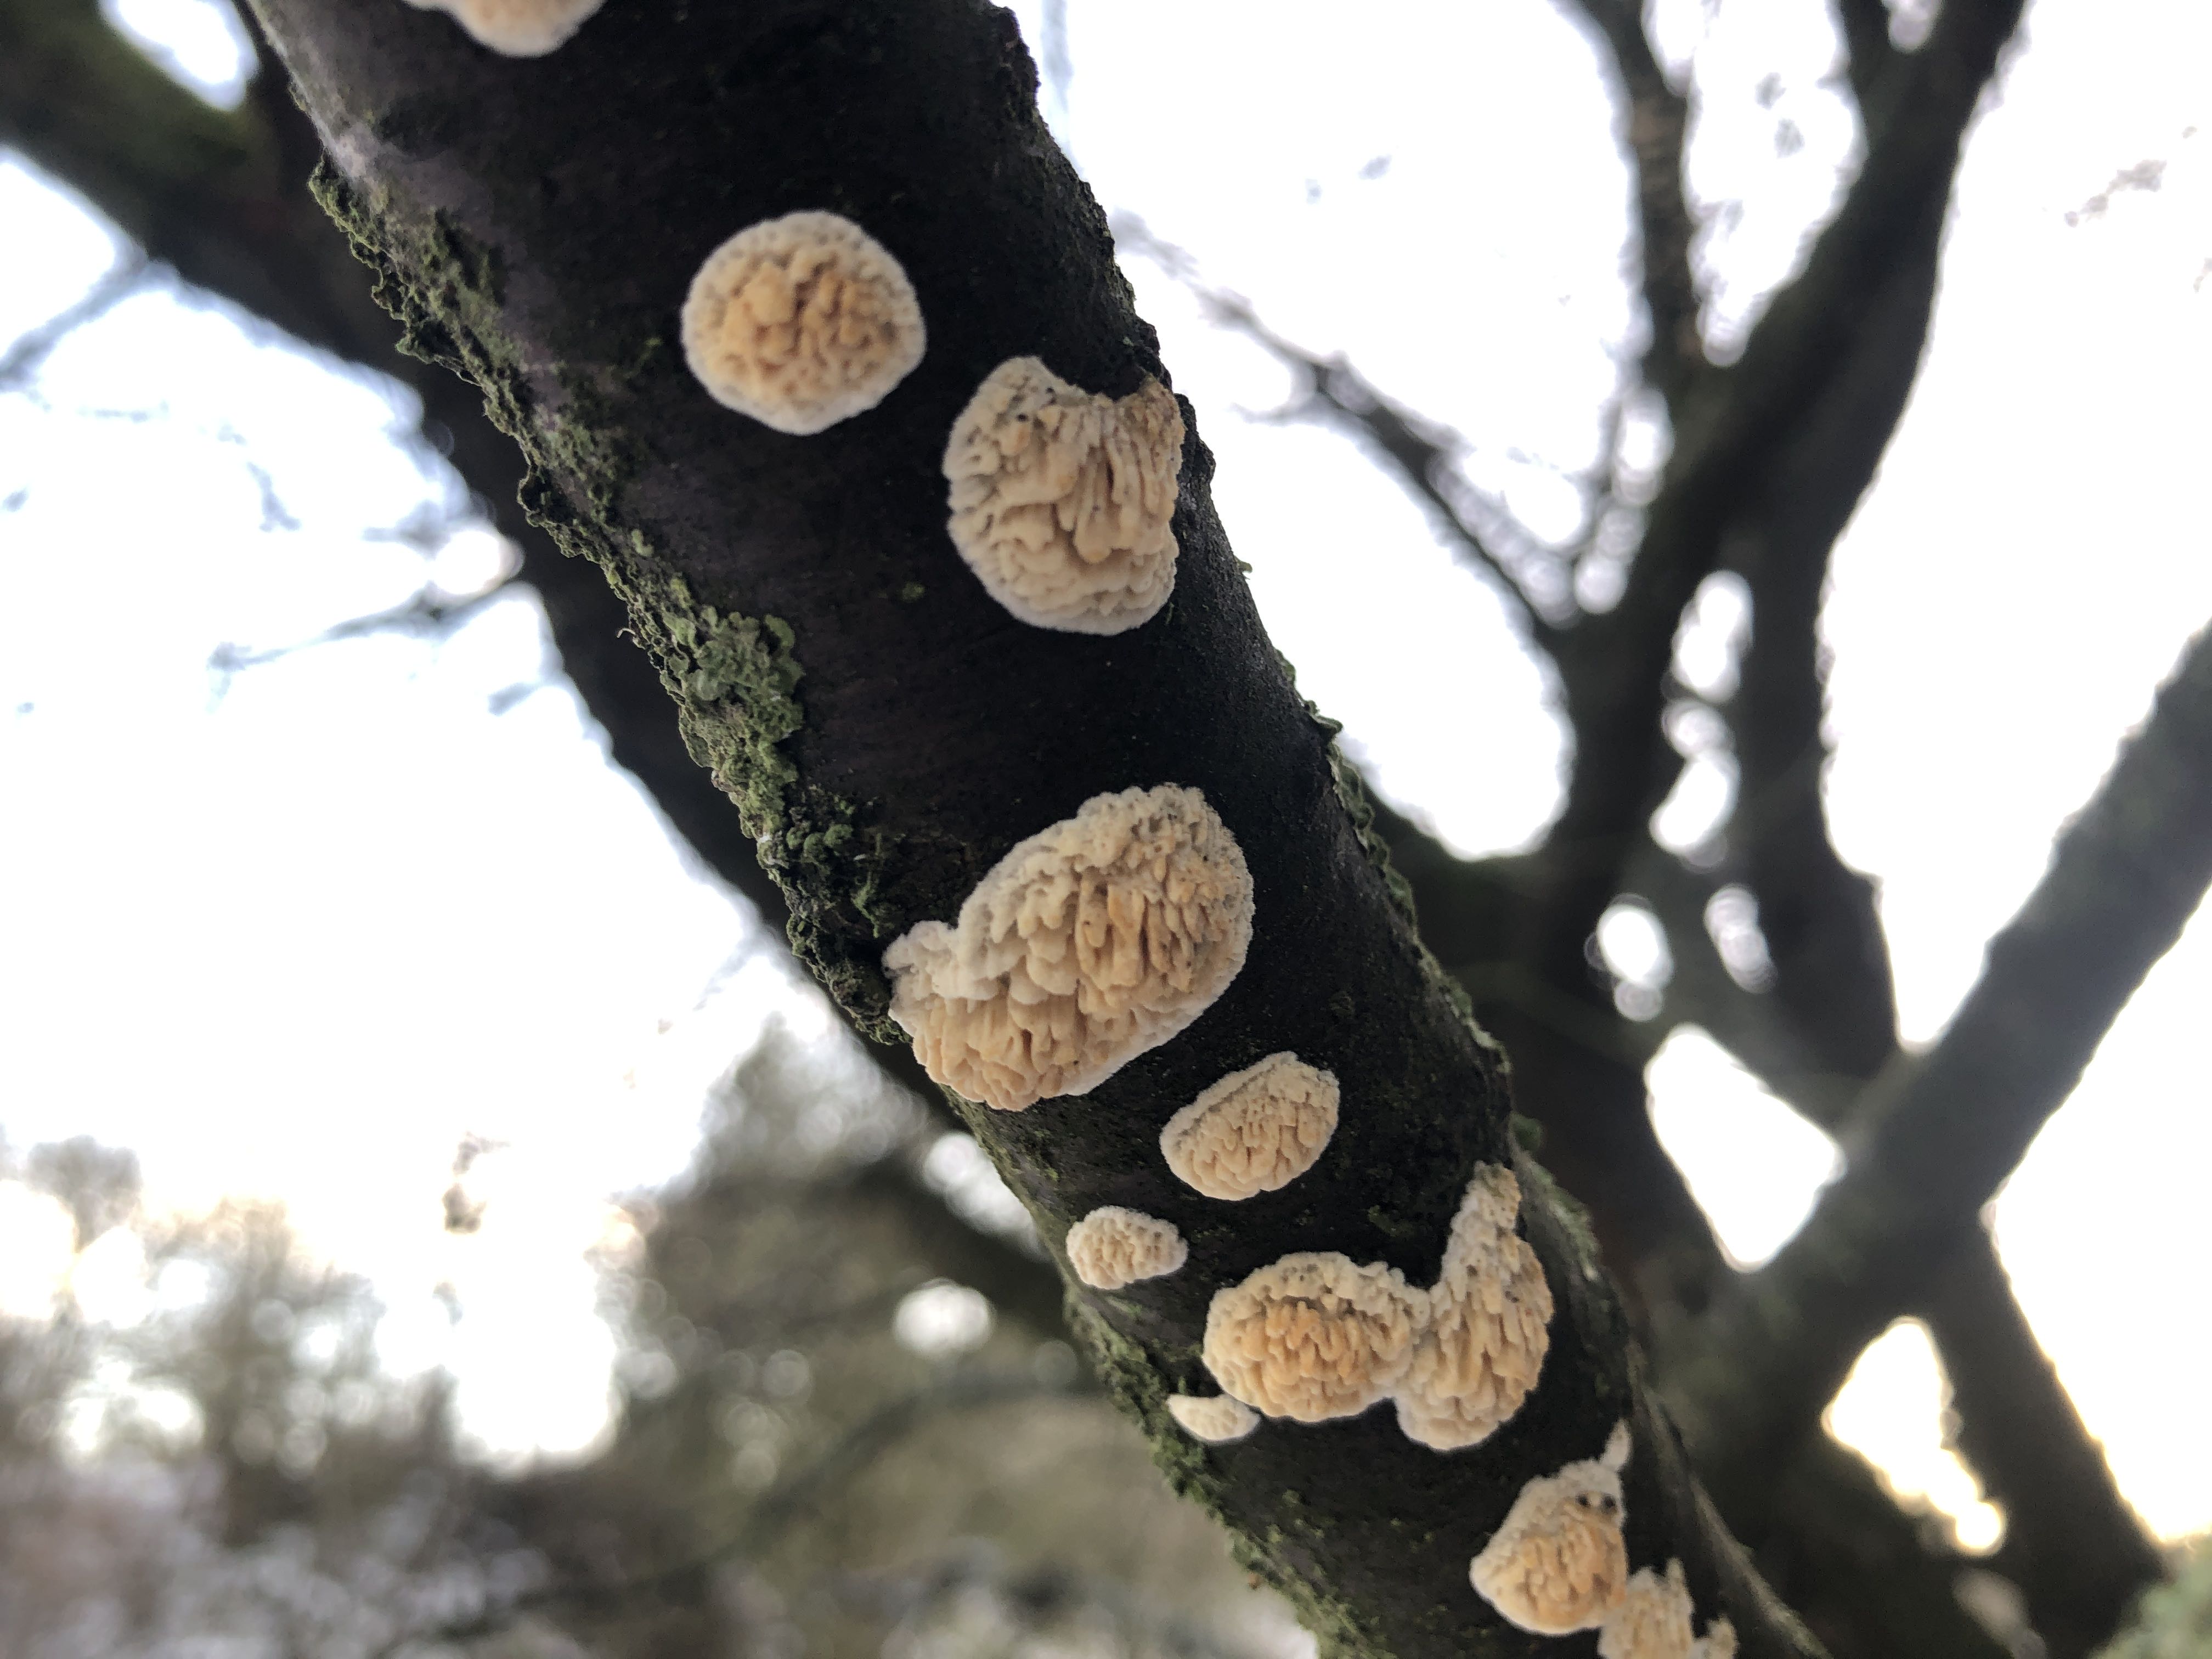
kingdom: Fungi
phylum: Basidiomycota
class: Agaricomycetes
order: Hymenochaetales
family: Schizoporaceae
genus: Xylodon
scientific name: Xylodon radula
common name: grovtandet kalkskind
